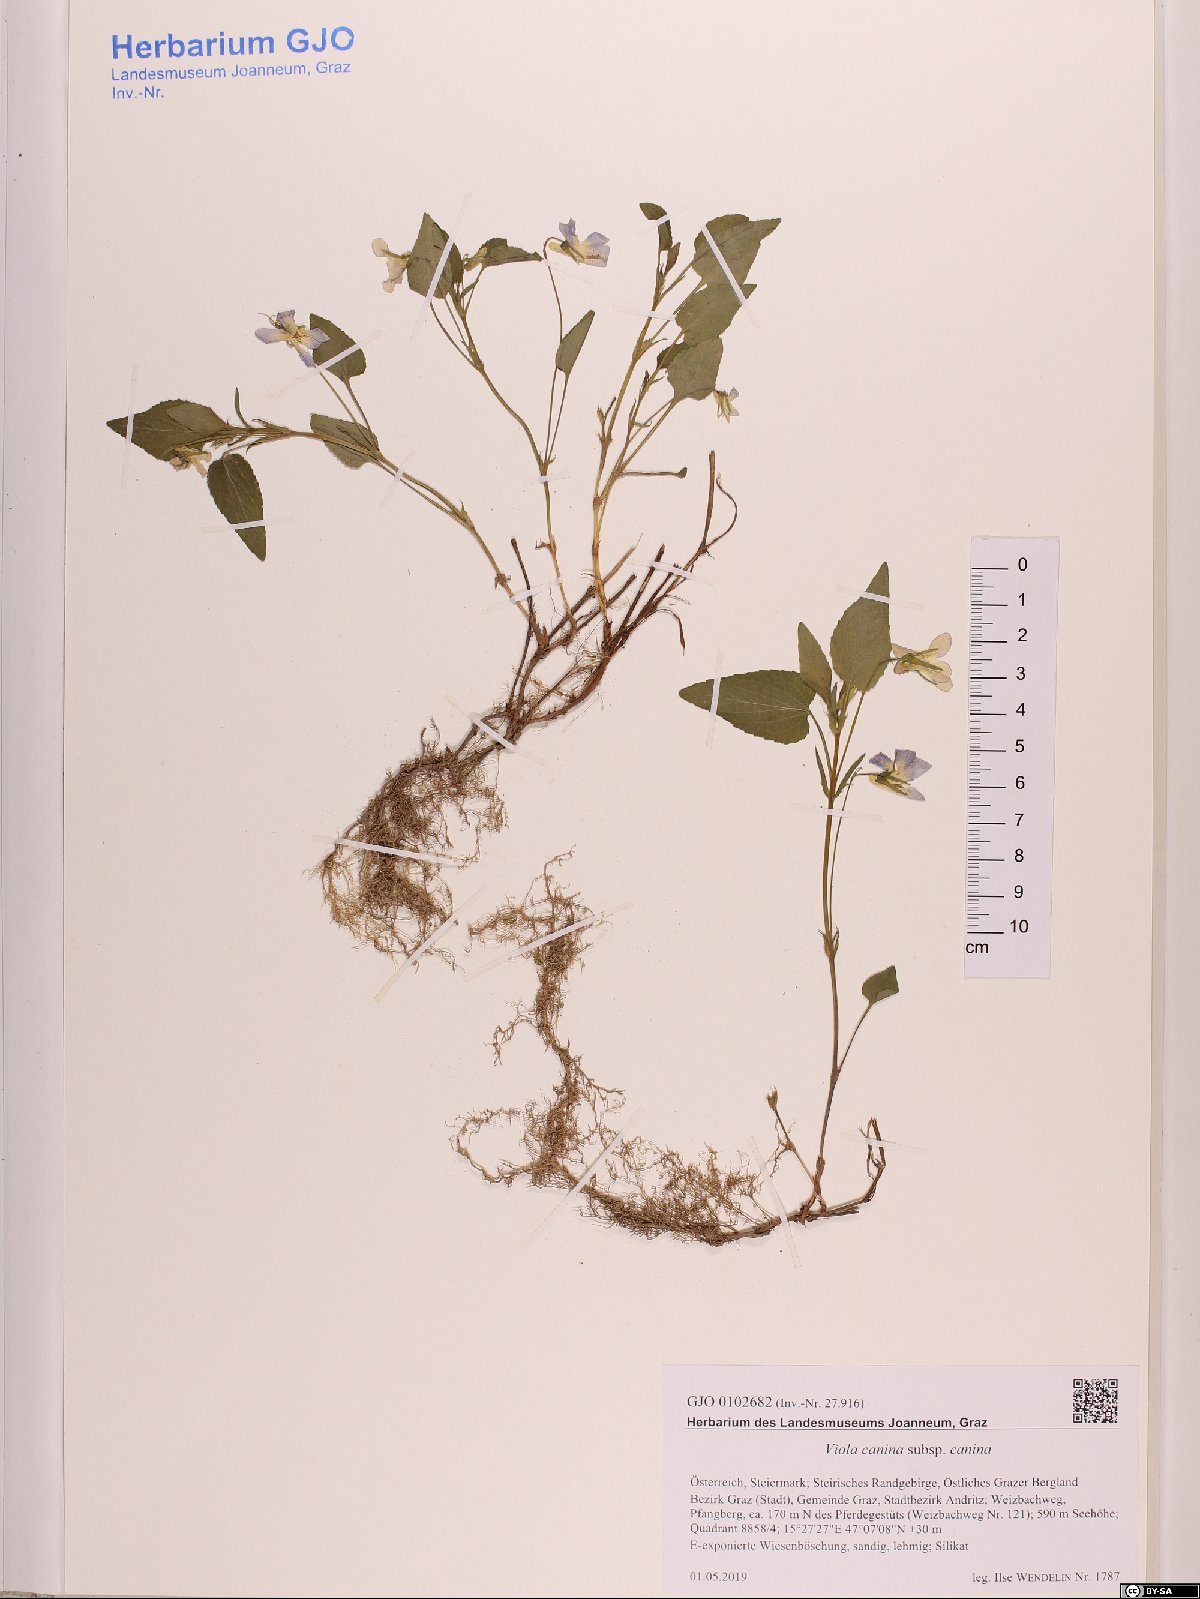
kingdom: Plantae
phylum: Tracheophyta
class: Magnoliopsida
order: Malpighiales
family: Violaceae
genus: Viola
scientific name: Viola canina
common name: Heath dog-violet
